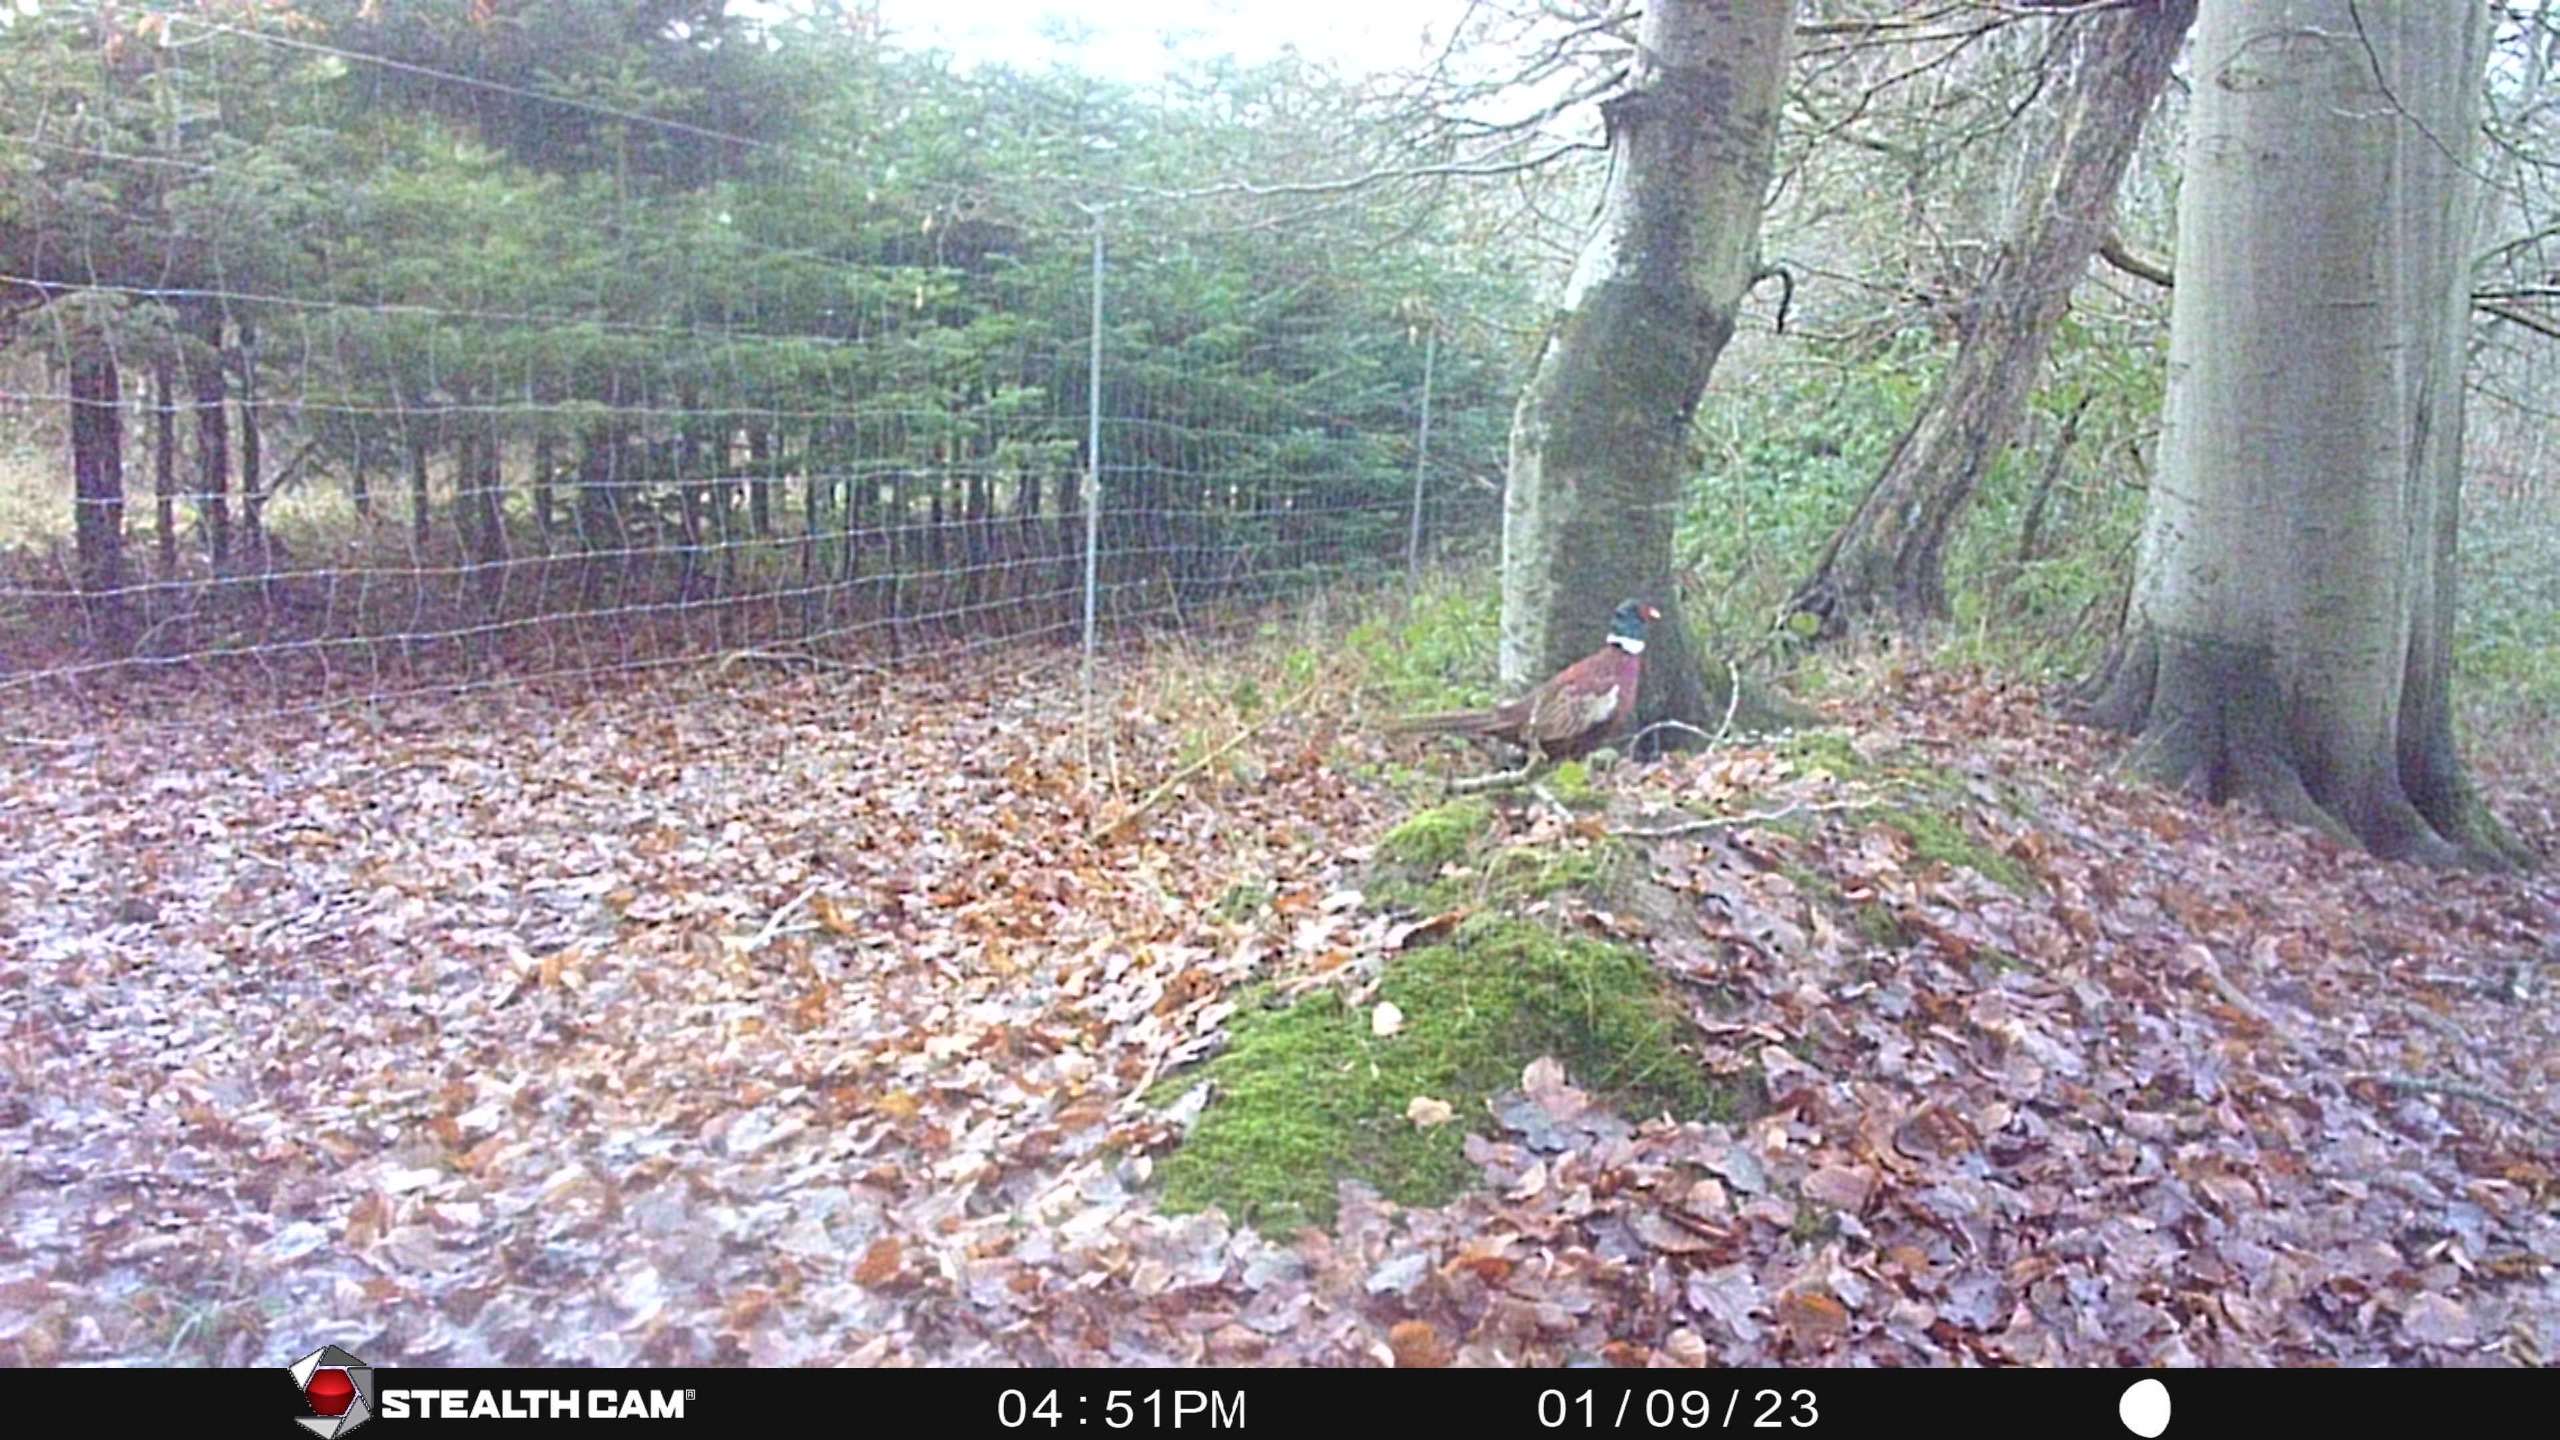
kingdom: Animalia
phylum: Chordata
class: Aves
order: Galliformes
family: Phasianidae
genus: Phasianus
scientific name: Phasianus colchicus
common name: Fasan
